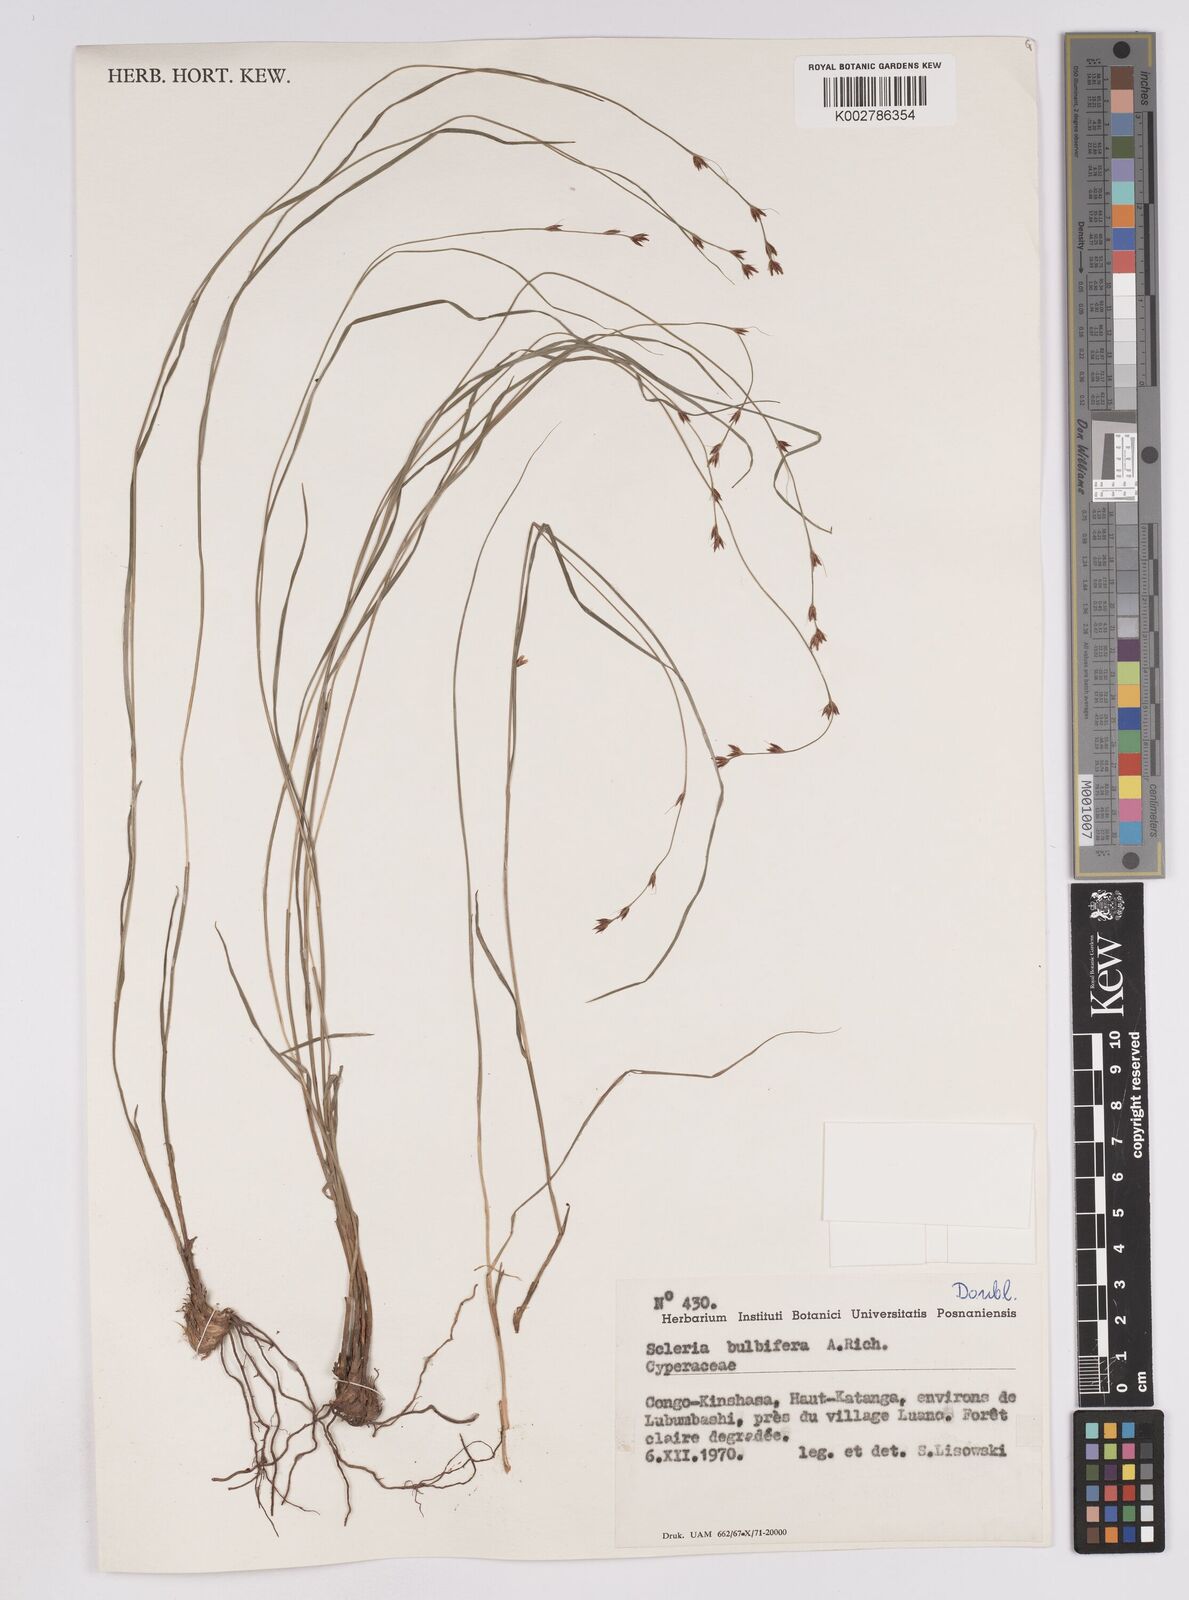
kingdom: Plantae
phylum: Tracheophyta
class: Liliopsida
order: Poales
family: Cyperaceae
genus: Scleria
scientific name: Scleria bulbifera
